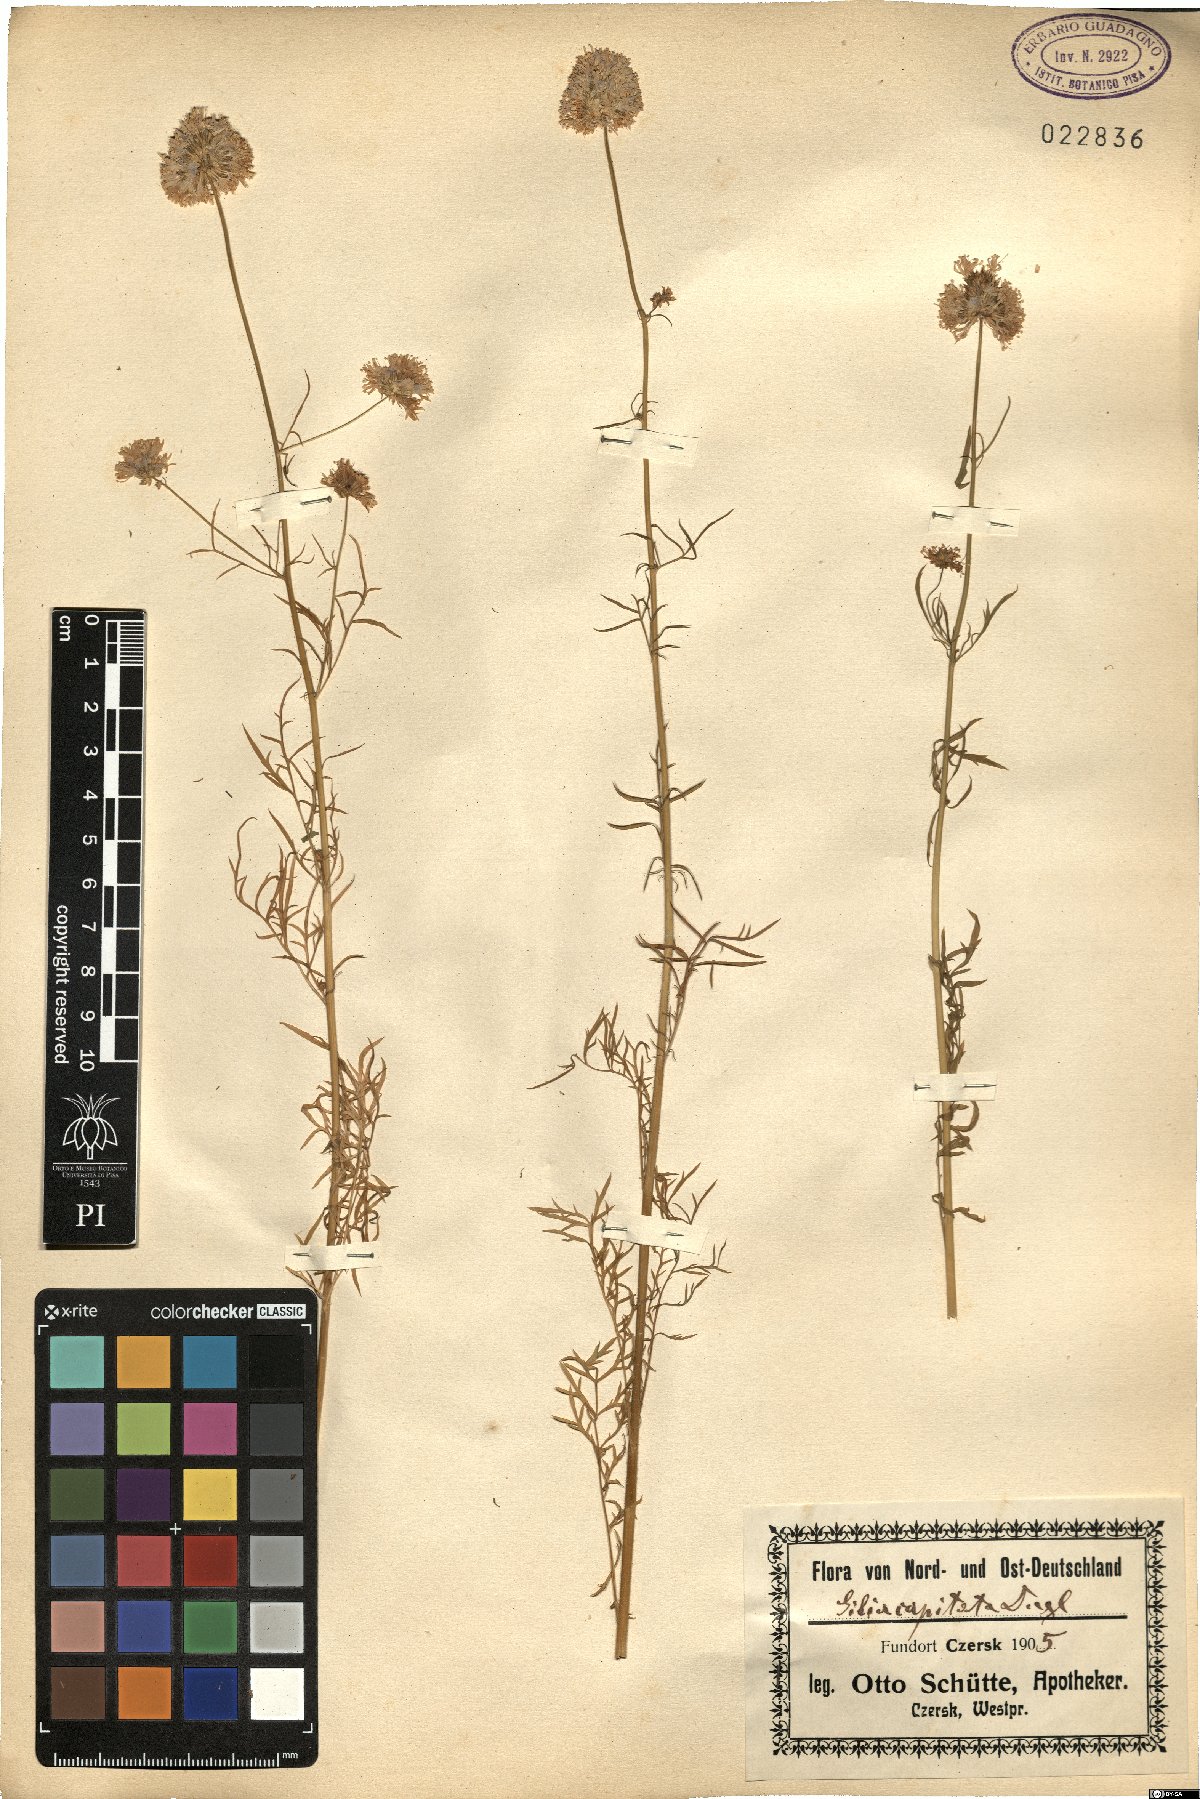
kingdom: Plantae
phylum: Tracheophyta
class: Magnoliopsida
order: Ericales
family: Polemoniaceae
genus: Gilia
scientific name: Gilia capitata
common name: Bluehead gilia
